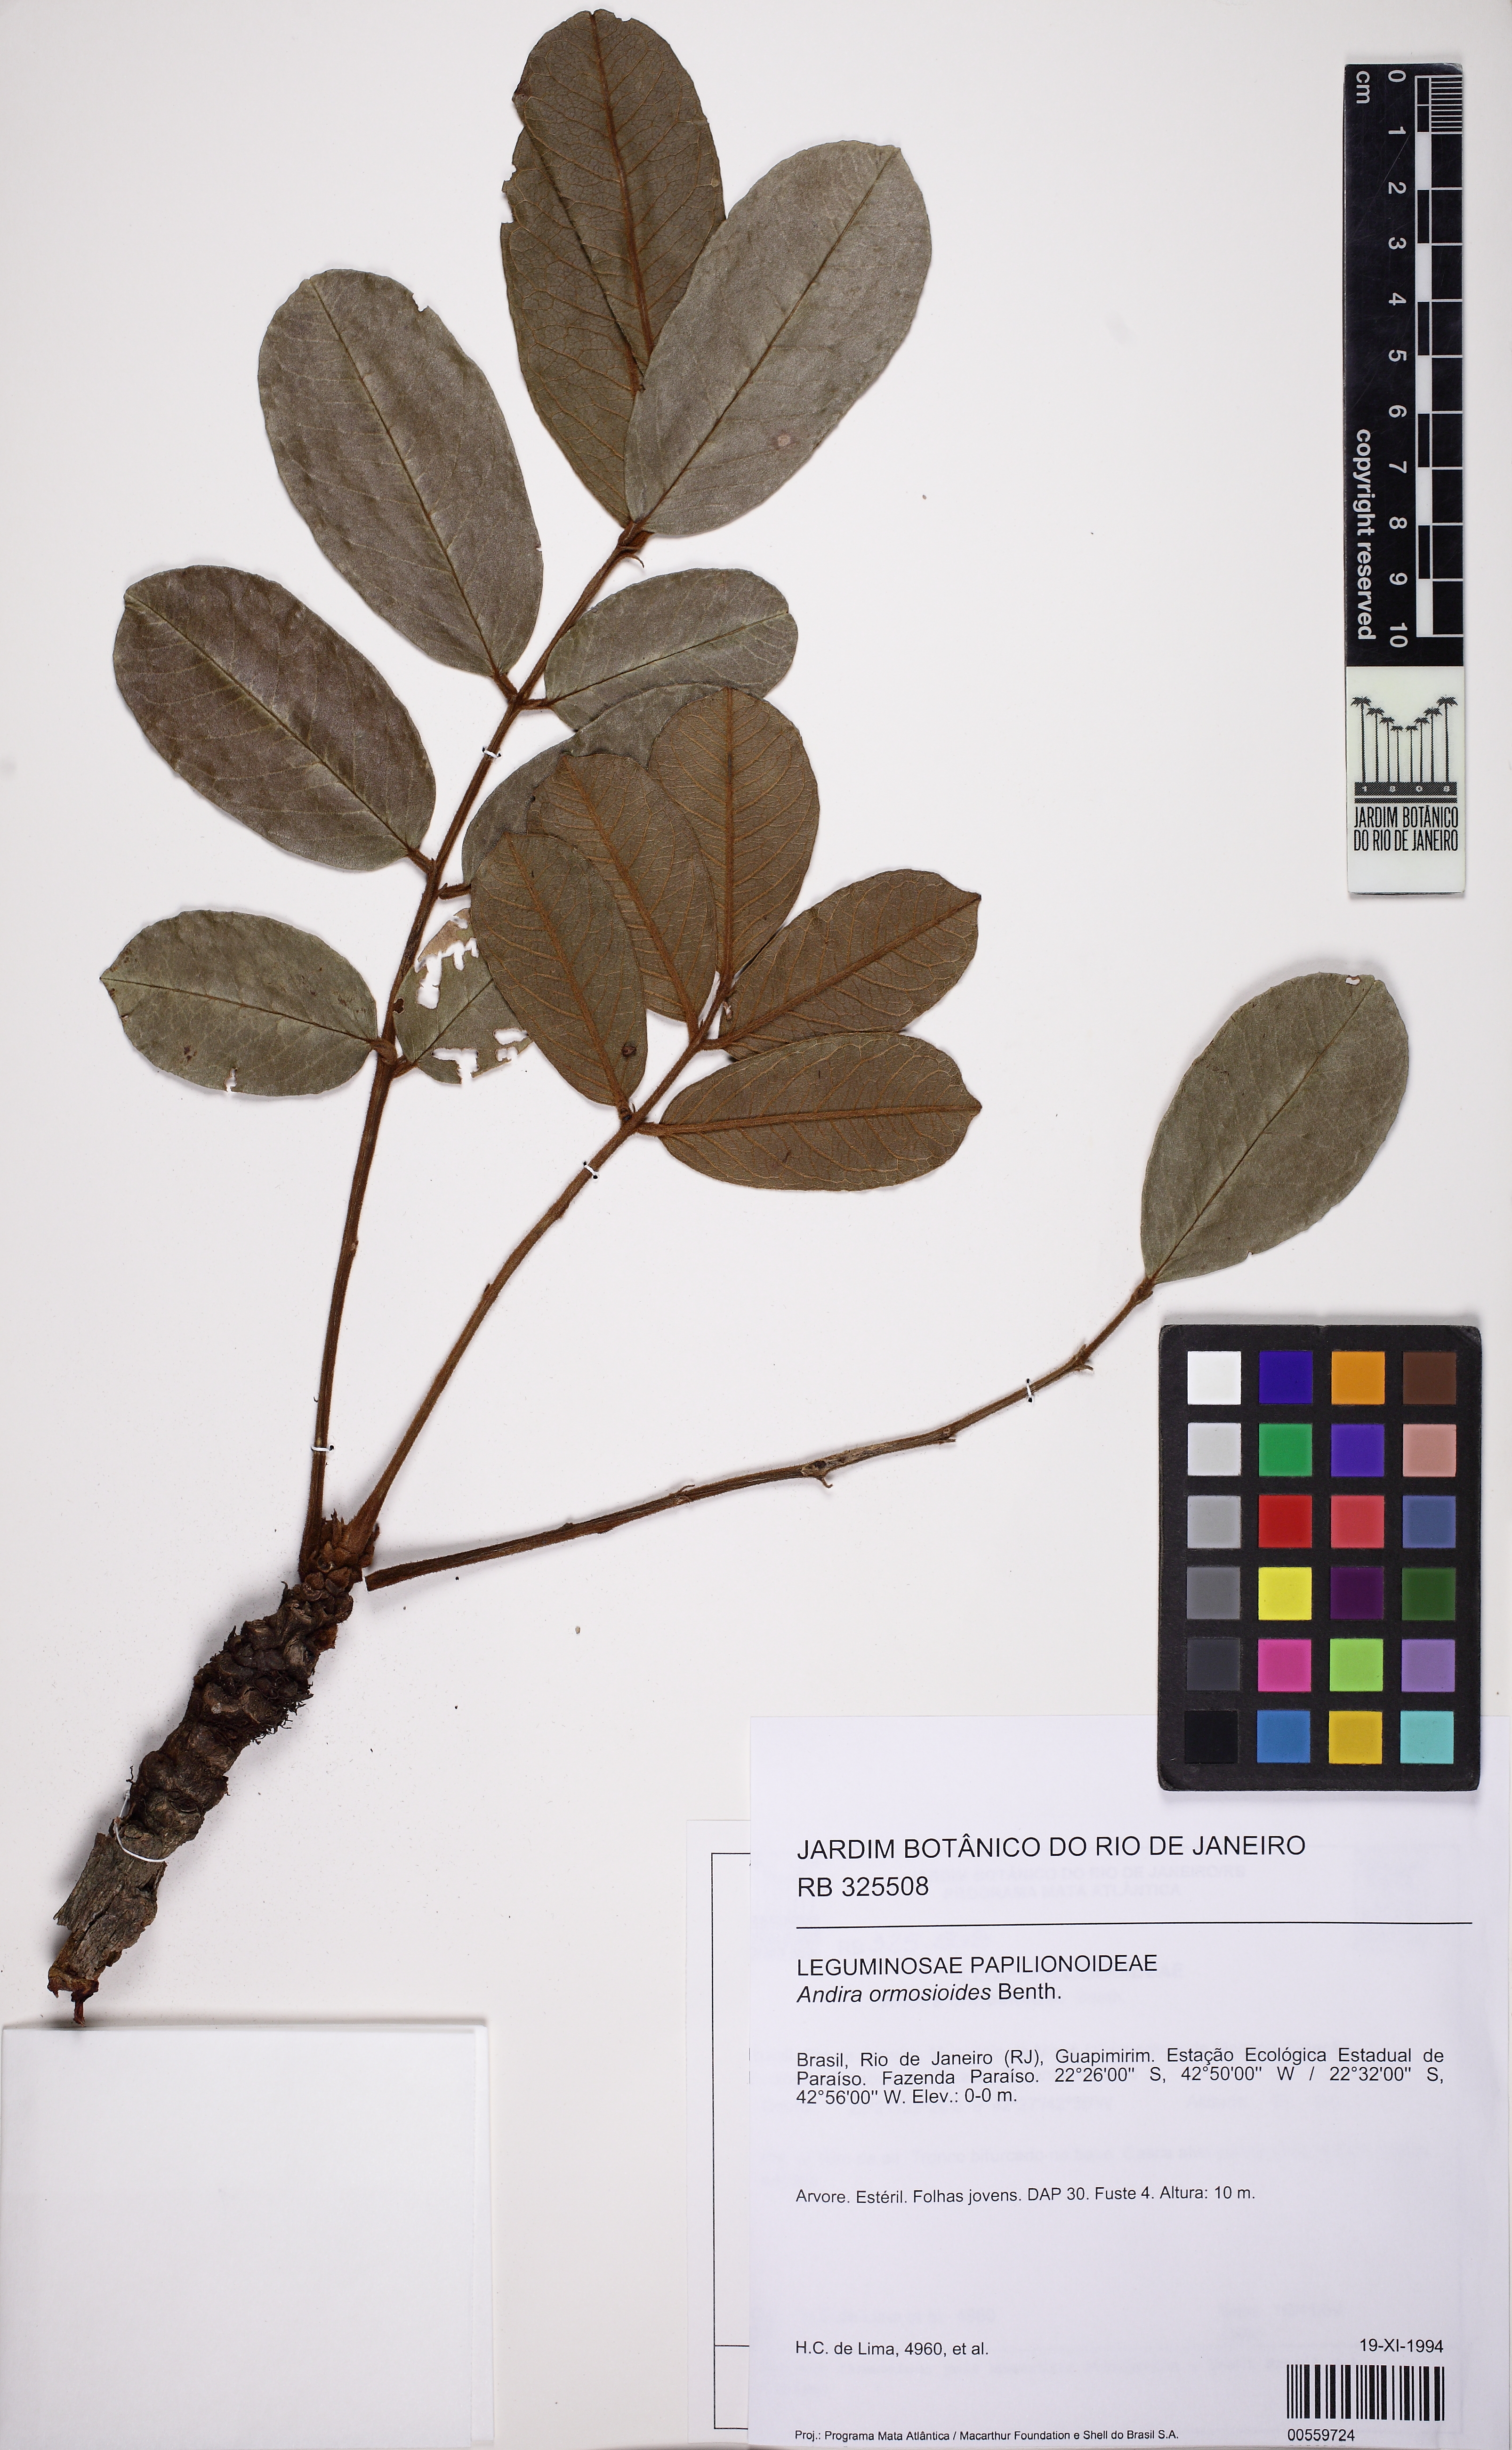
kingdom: Plantae
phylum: Tracheophyta
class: Magnoliopsida
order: Fabales
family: Fabaceae
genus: Andira
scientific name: Andira ormosioides
